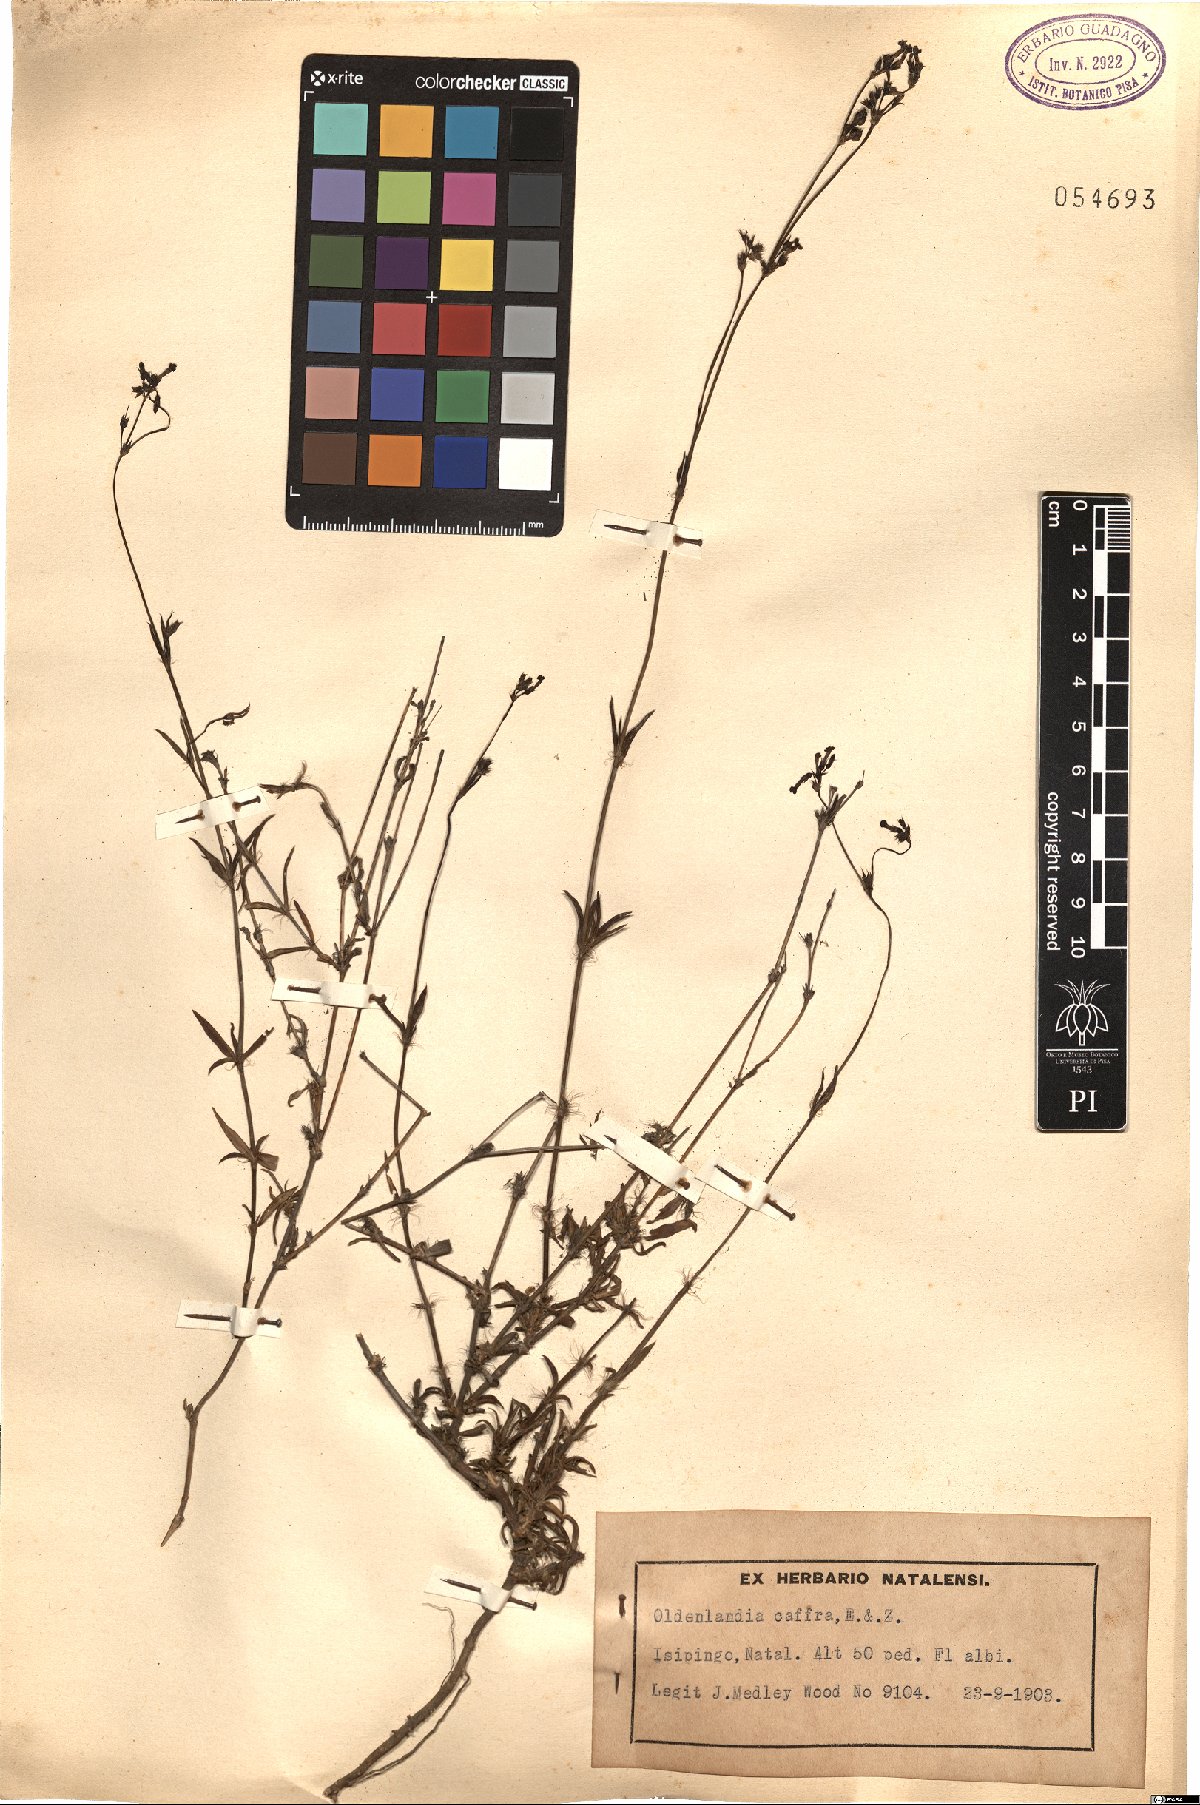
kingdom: Plantae
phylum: Tracheophyta
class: Magnoliopsida
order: Gentianales
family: Rubiaceae
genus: Cordylostigma
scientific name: Cordylostigma virgatum
